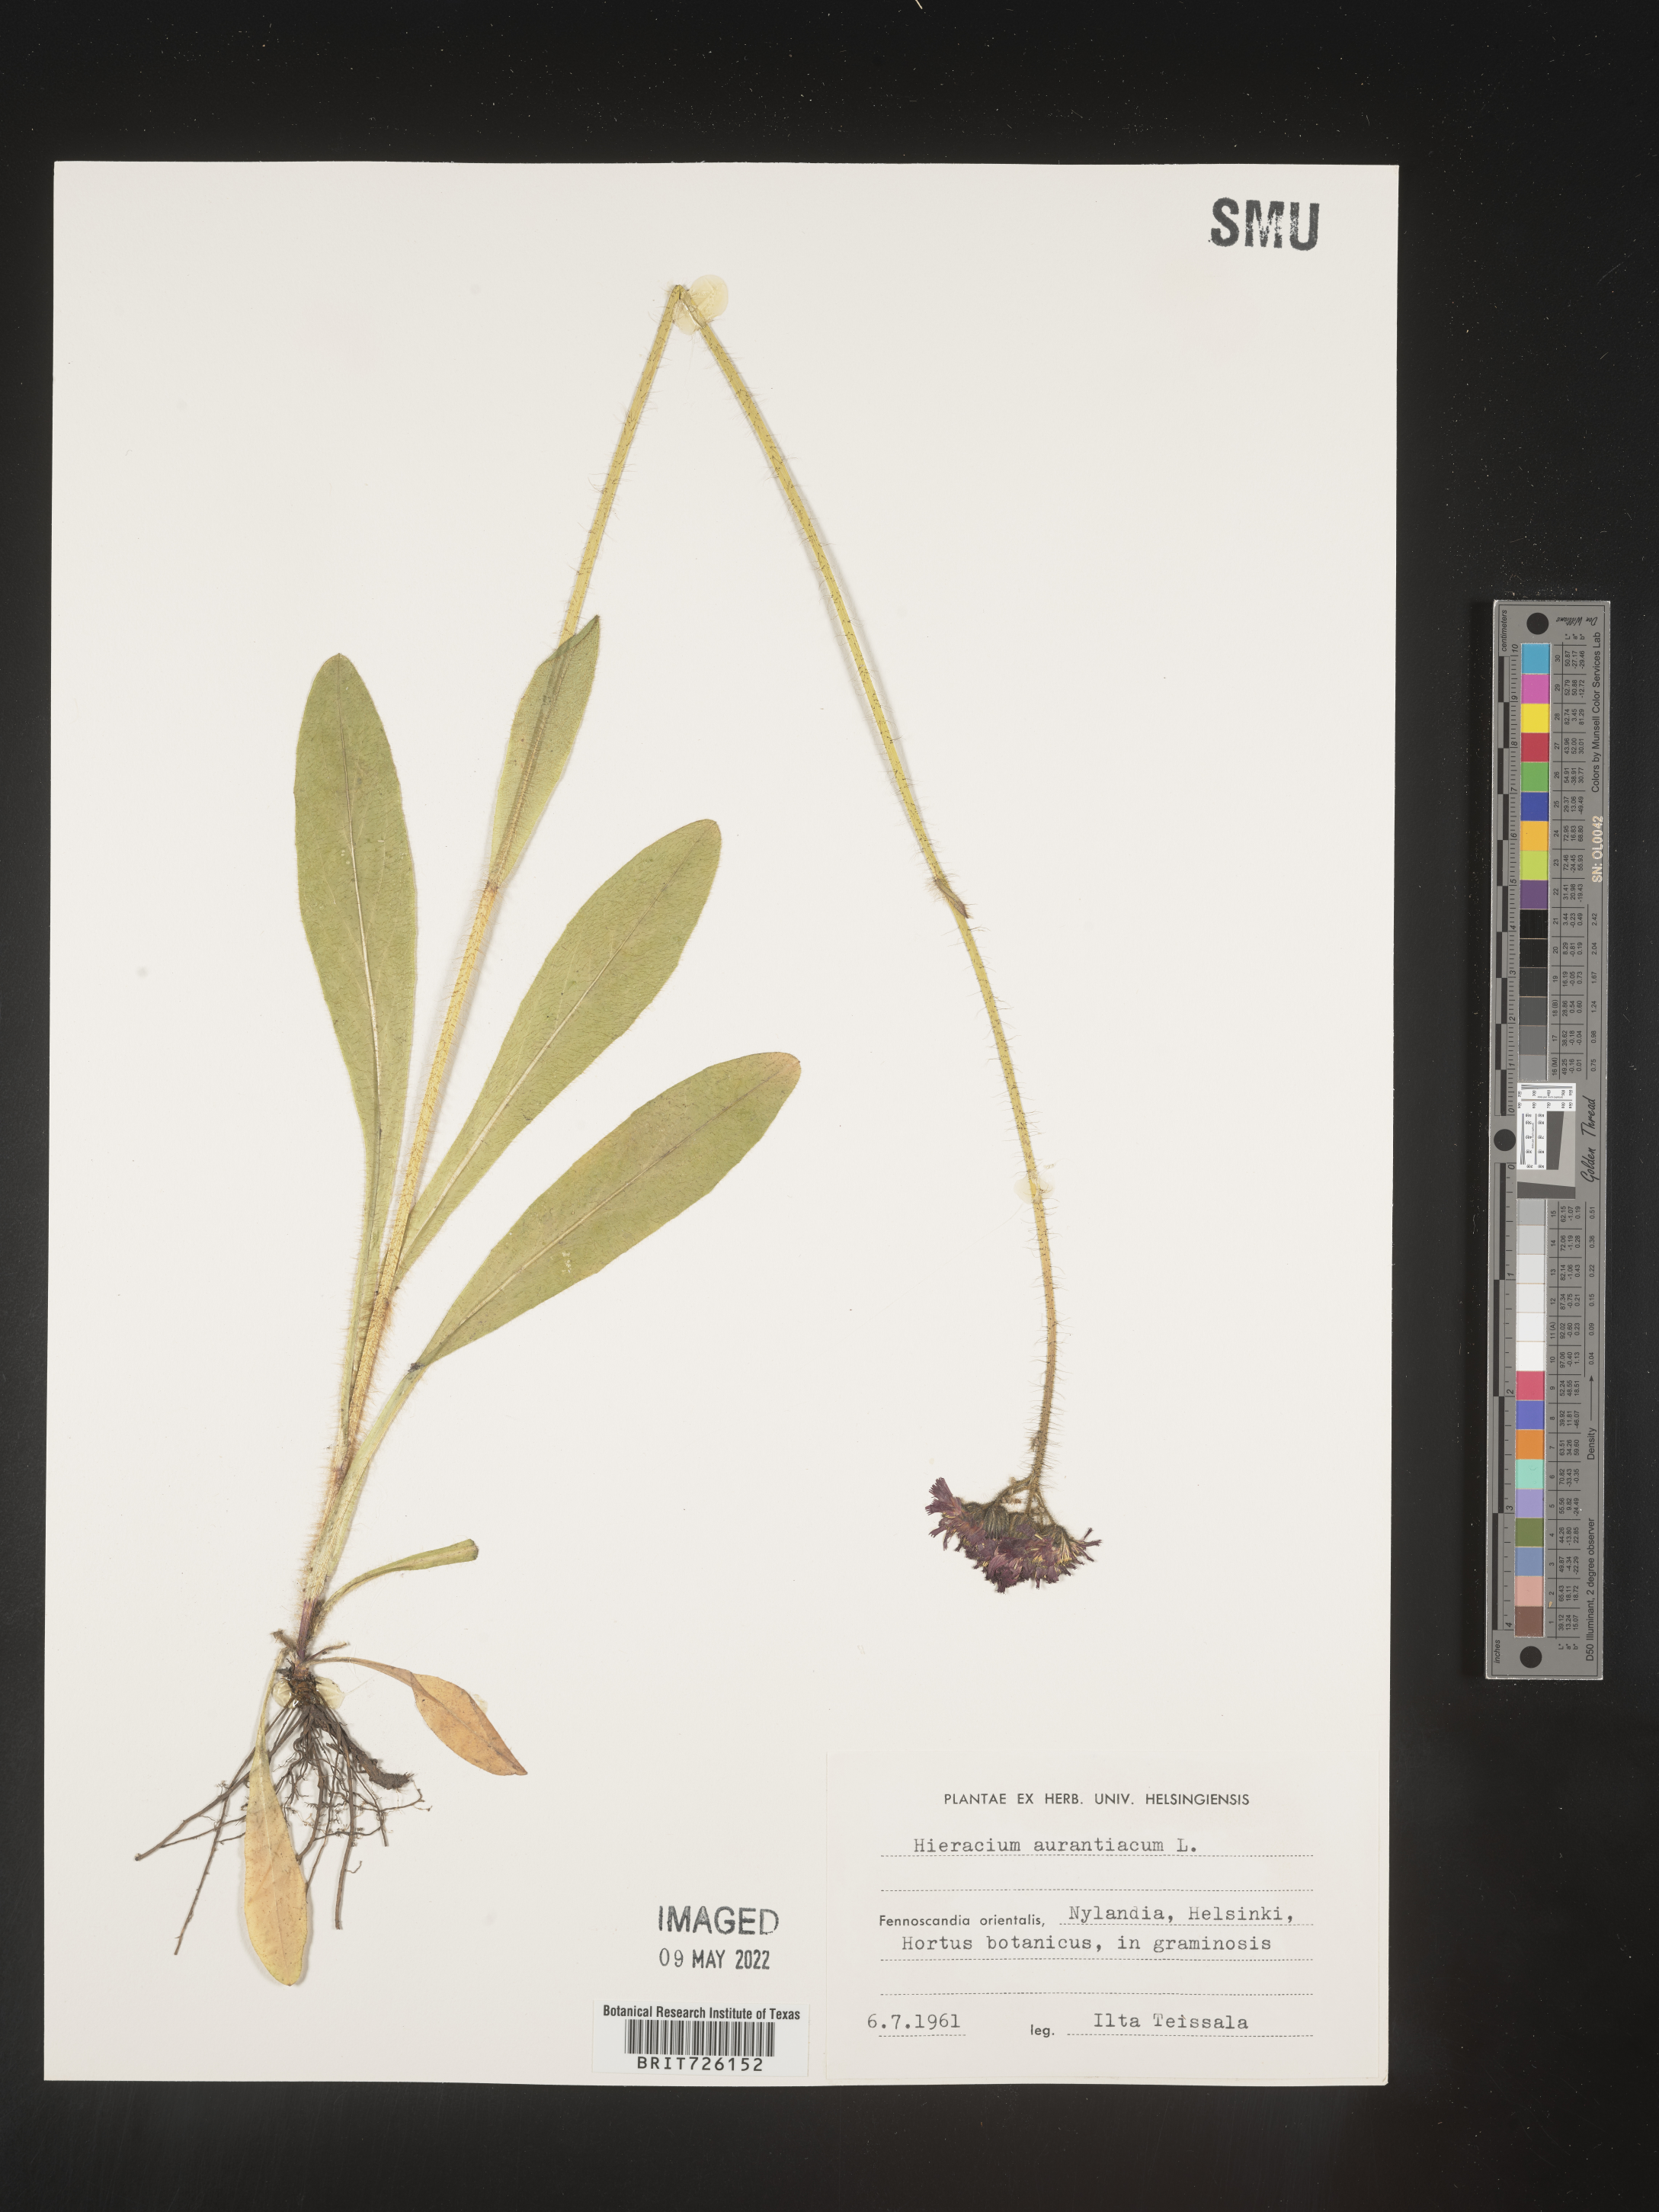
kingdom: Plantae
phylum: Tracheophyta
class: Magnoliopsida
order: Asterales
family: Asteraceae
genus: Hieracium
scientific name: Hieracium
